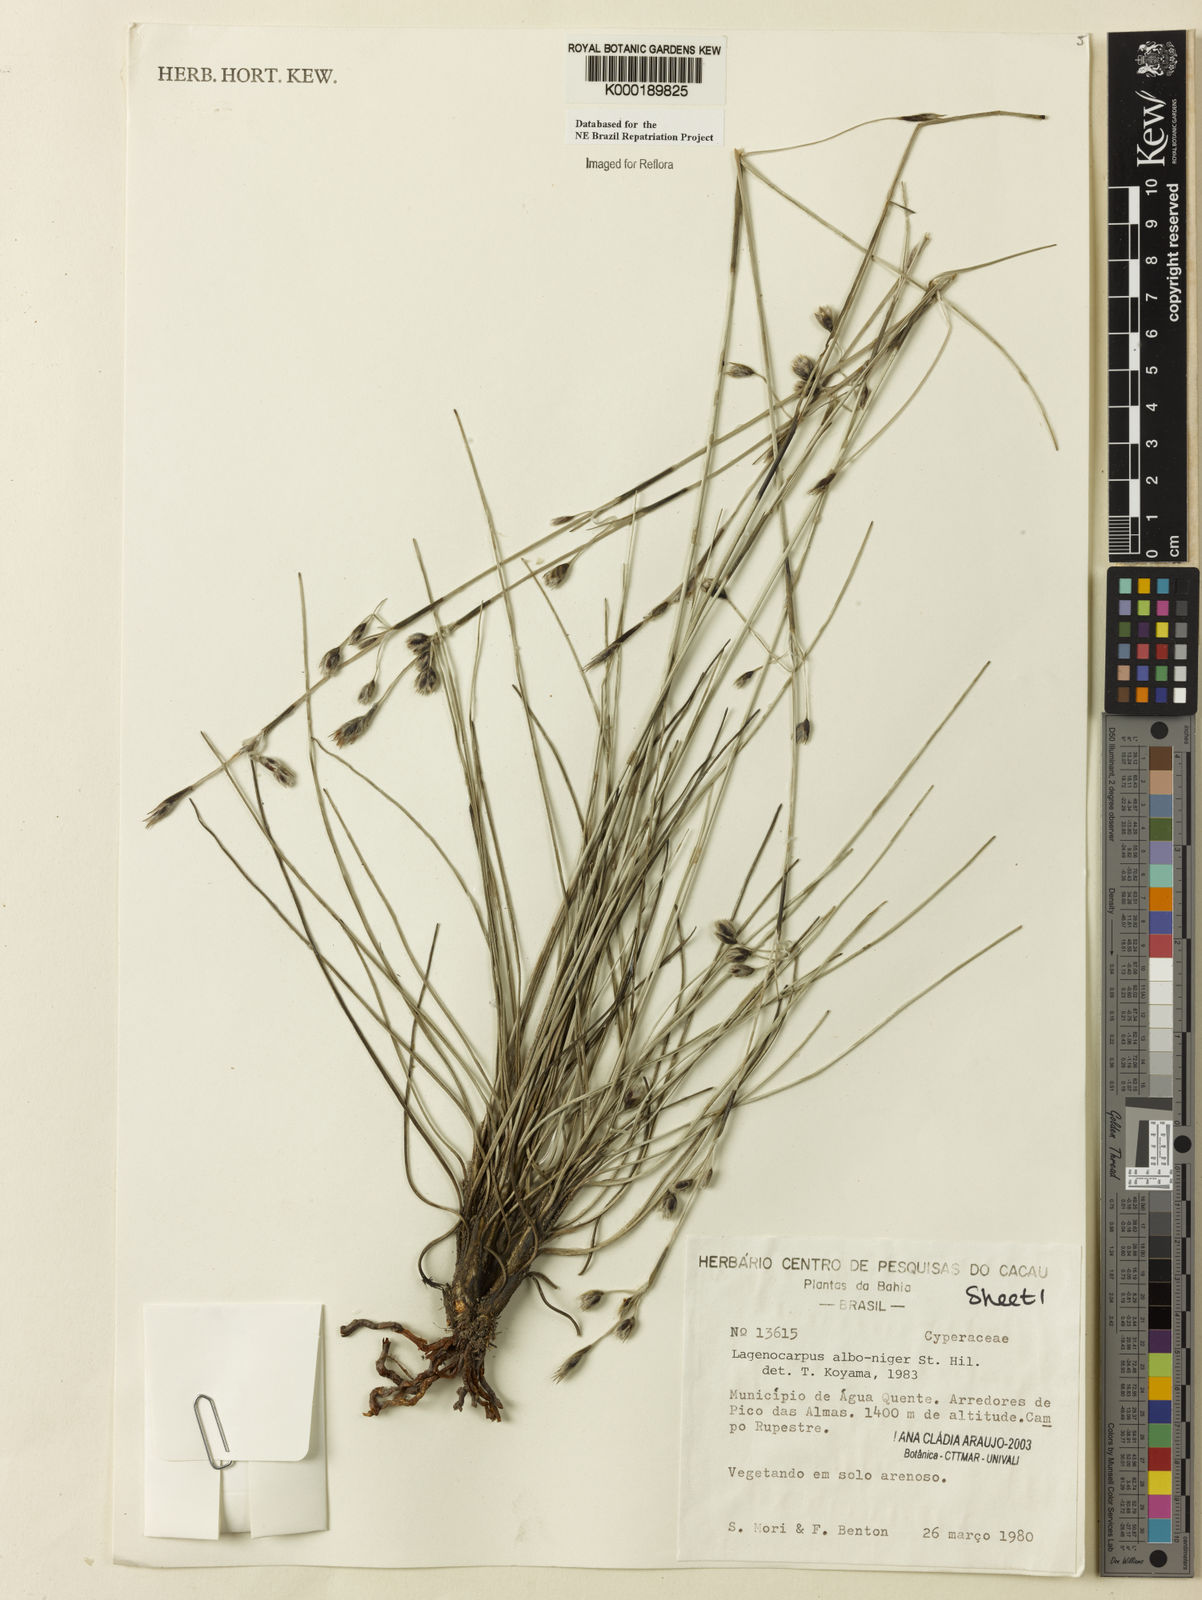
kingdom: Plantae
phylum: Tracheophyta
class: Liliopsida
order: Poales
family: Cyperaceae
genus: Lagenocarpus
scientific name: Lagenocarpus alboniger
